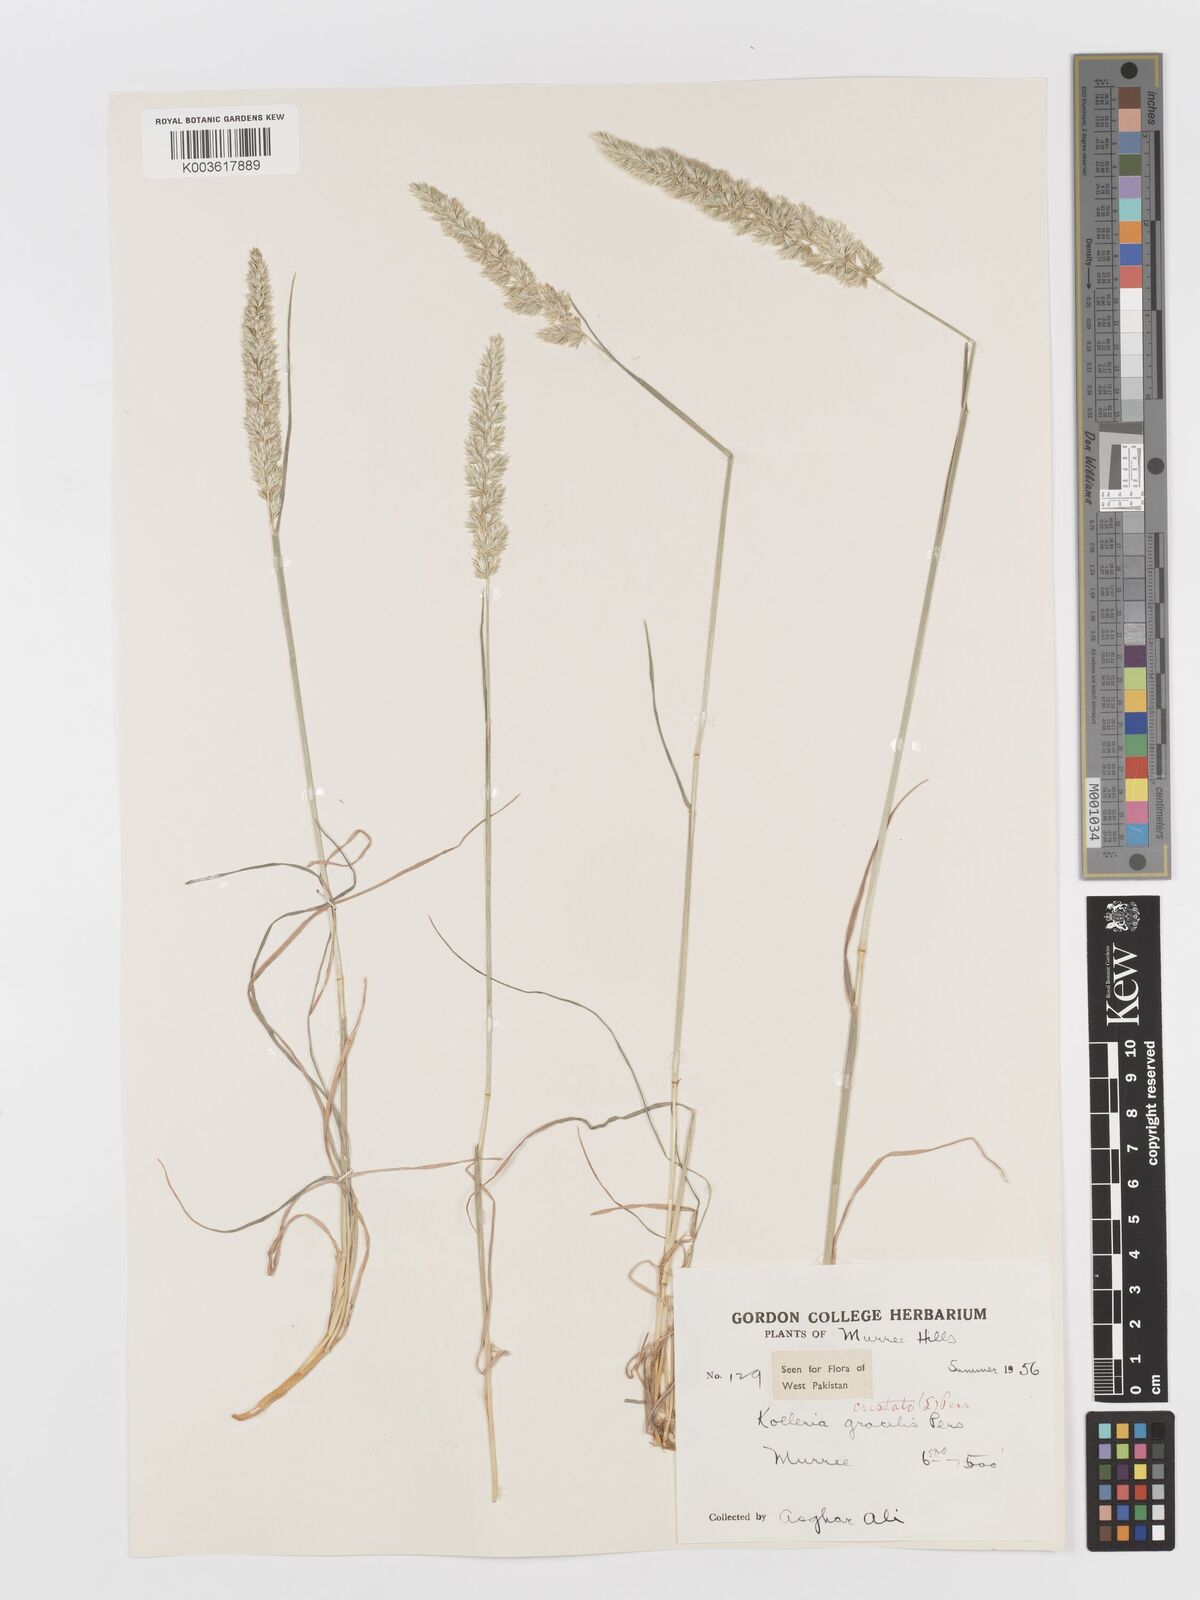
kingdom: Plantae
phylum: Tracheophyta
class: Liliopsida
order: Poales
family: Poaceae
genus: Koeleria
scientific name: Koeleria
